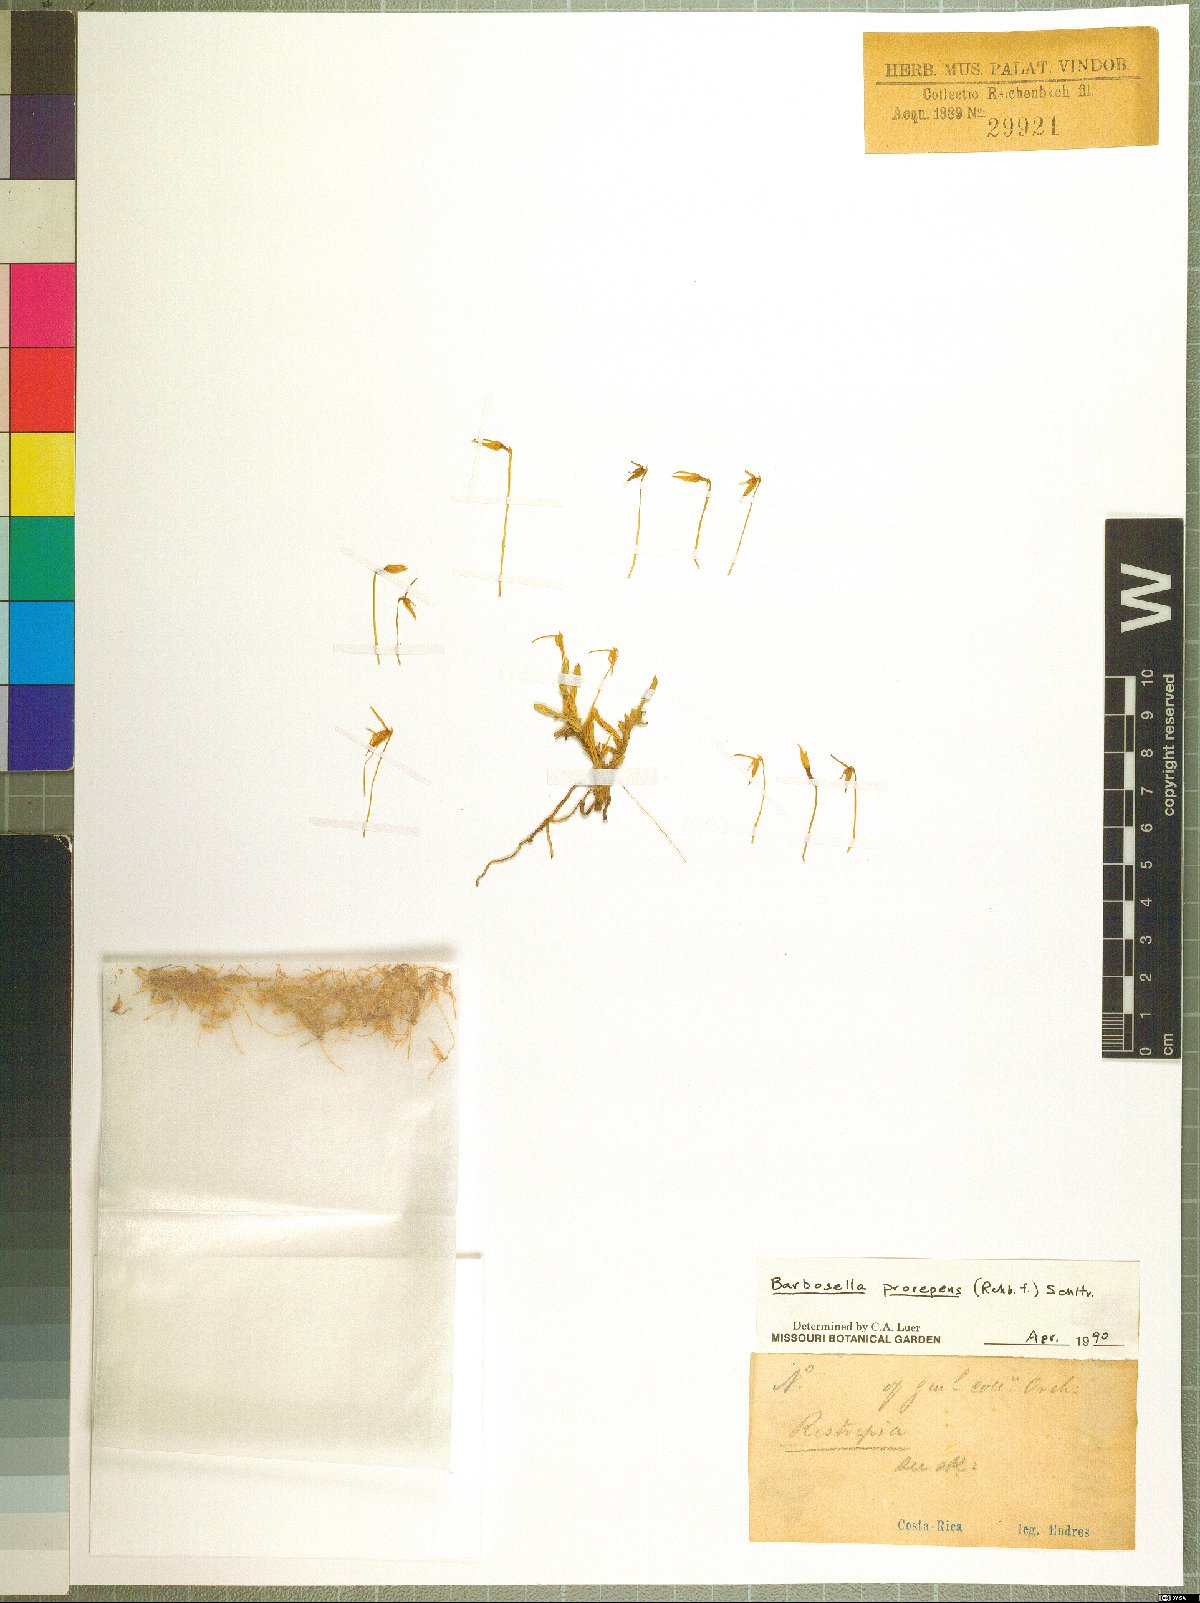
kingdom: Plantae
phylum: Tracheophyta
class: Liliopsida
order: Asparagales
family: Orchidaceae
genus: Barbosella
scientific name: Barbosella prorepens
